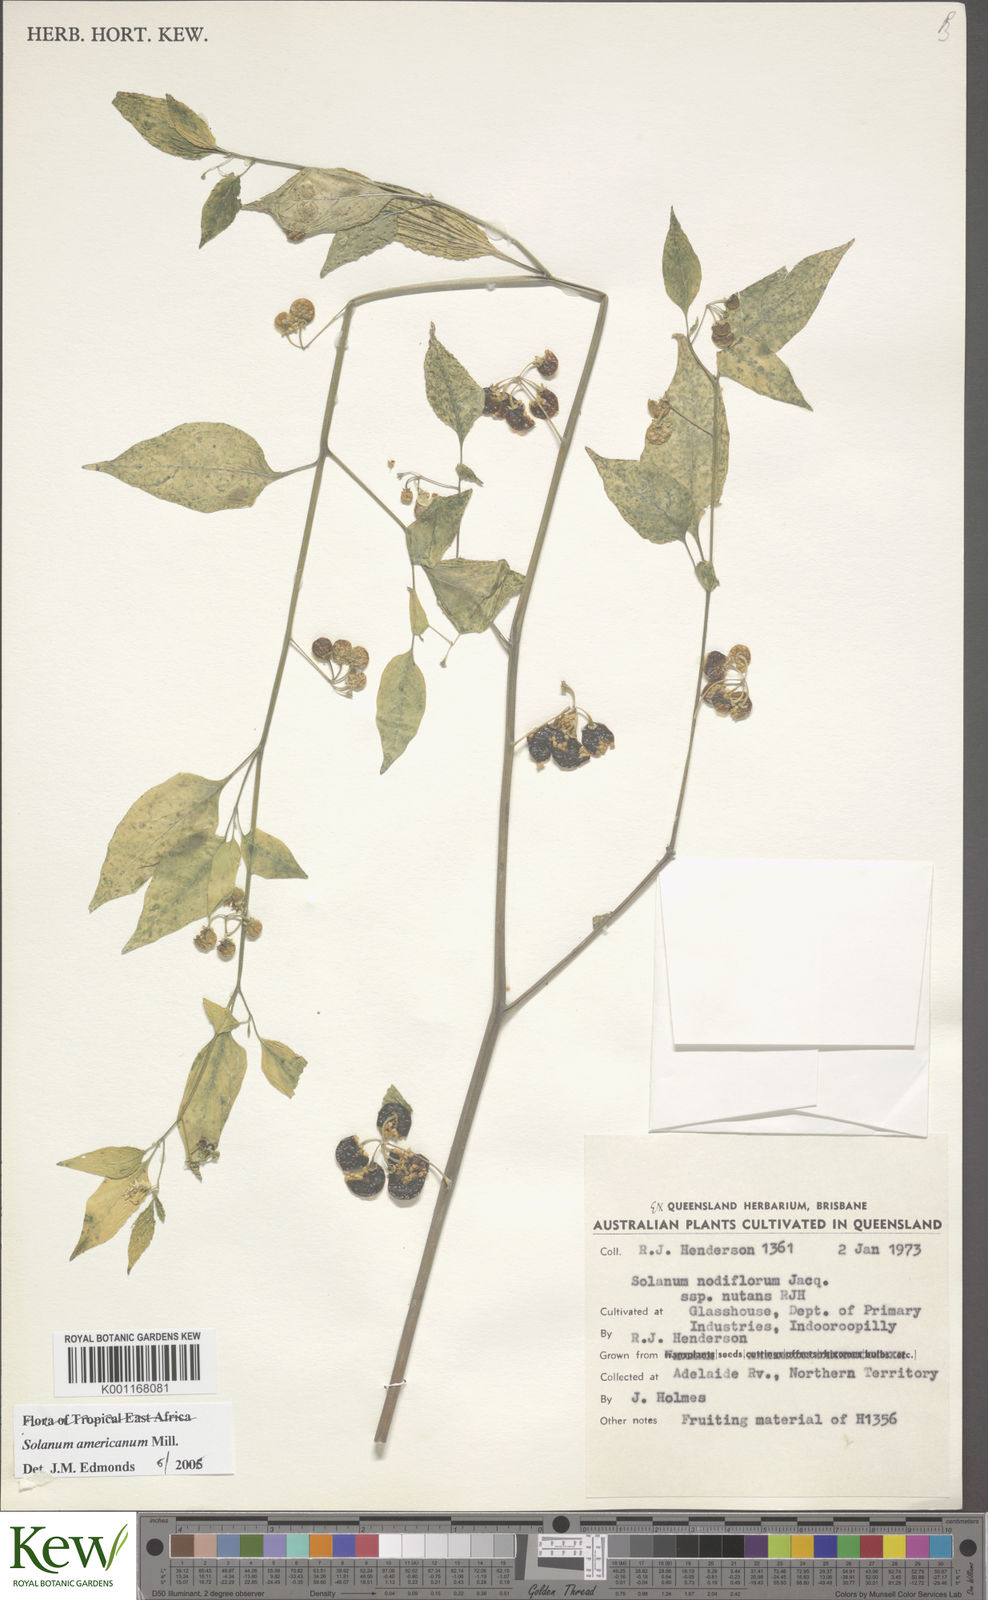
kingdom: Plantae
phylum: Tracheophyta
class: Magnoliopsida
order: Solanales
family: Solanaceae
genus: Solanum
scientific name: Solanum americanum
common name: American black nightshade
